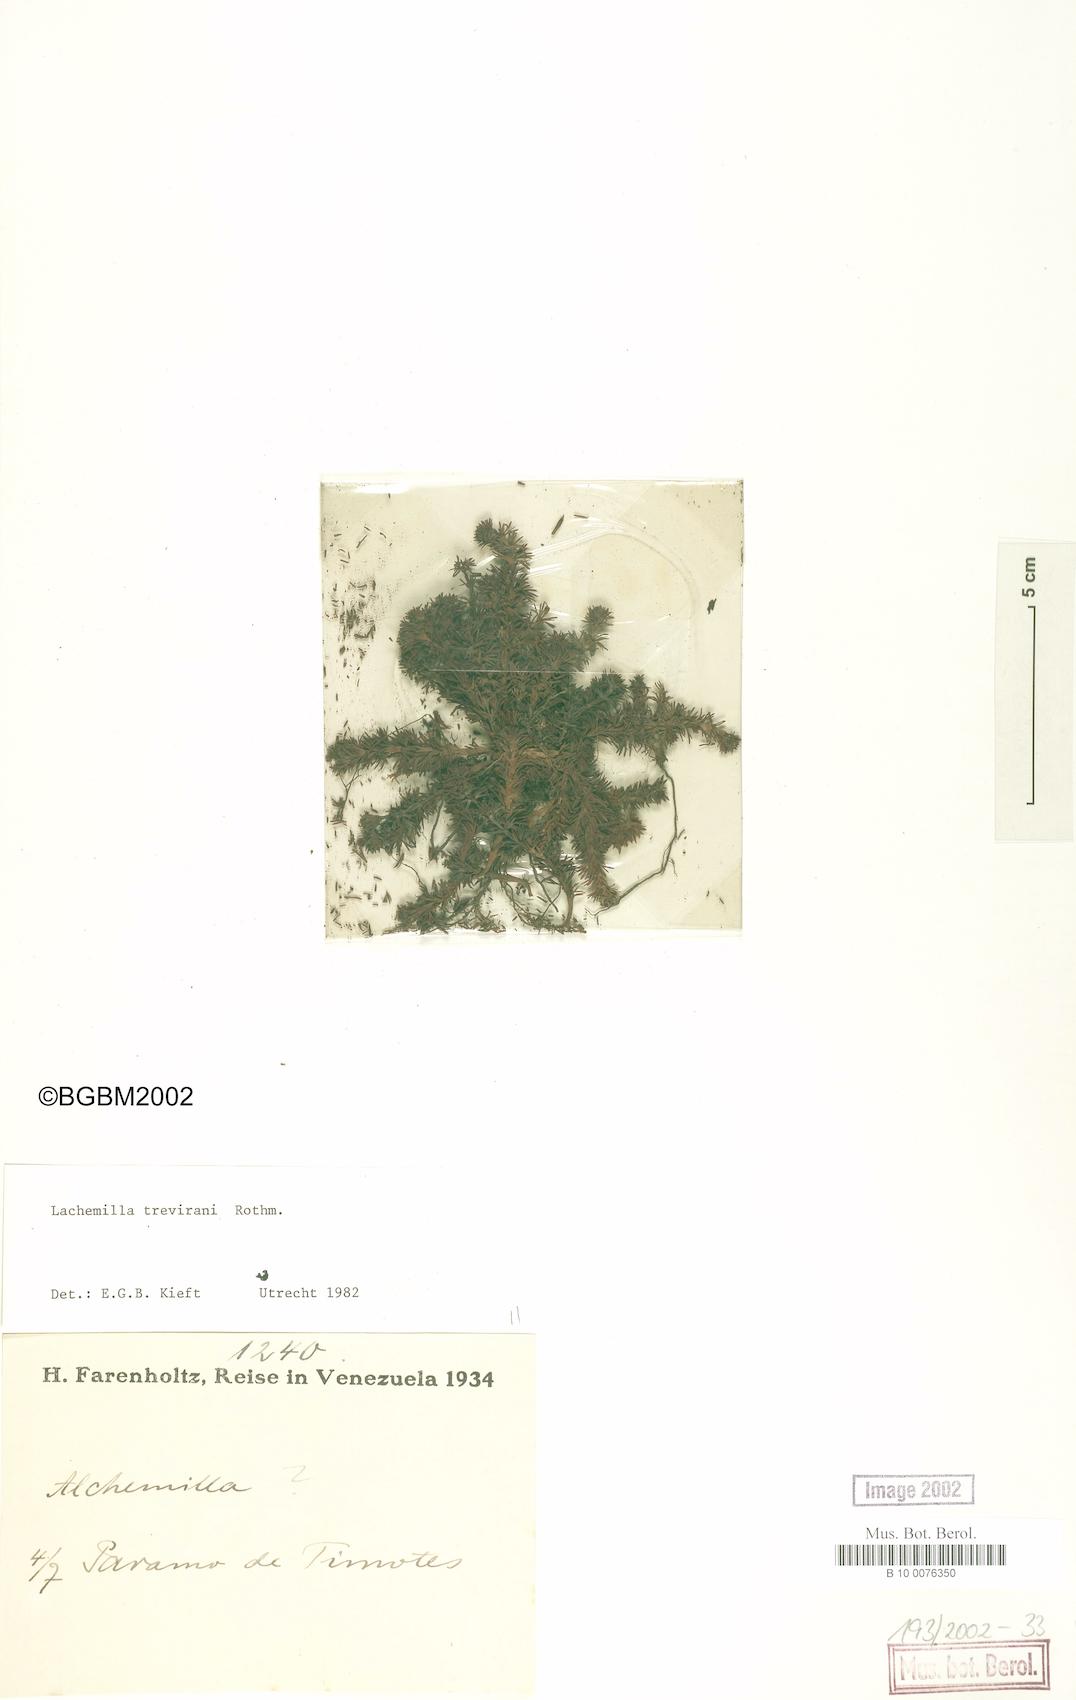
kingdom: Plantae
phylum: Tracheophyta
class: Magnoliopsida
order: Rosales
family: Rosaceae
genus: Lachemilla
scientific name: Lachemilla lycopodioides
